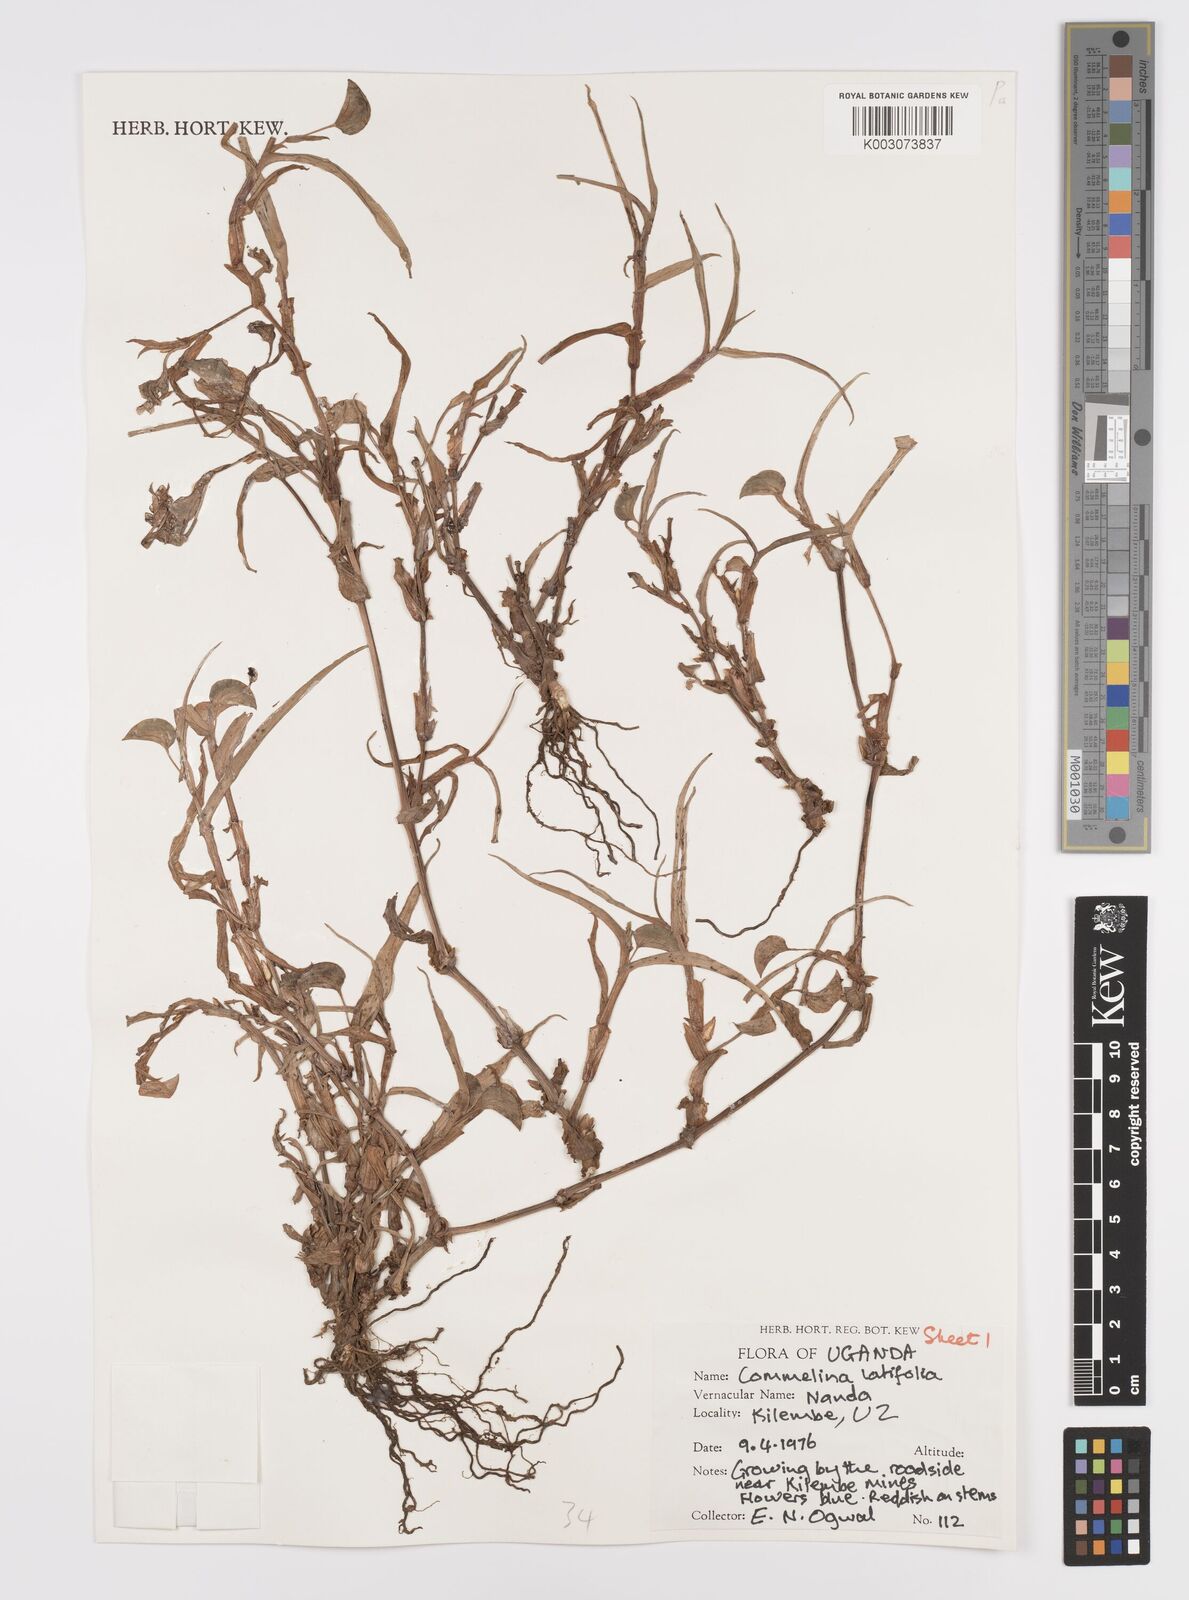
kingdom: Plantae
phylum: Tracheophyta
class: Liliopsida
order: Commelinales
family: Commelinaceae
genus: Commelina
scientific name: Commelina latifolia
